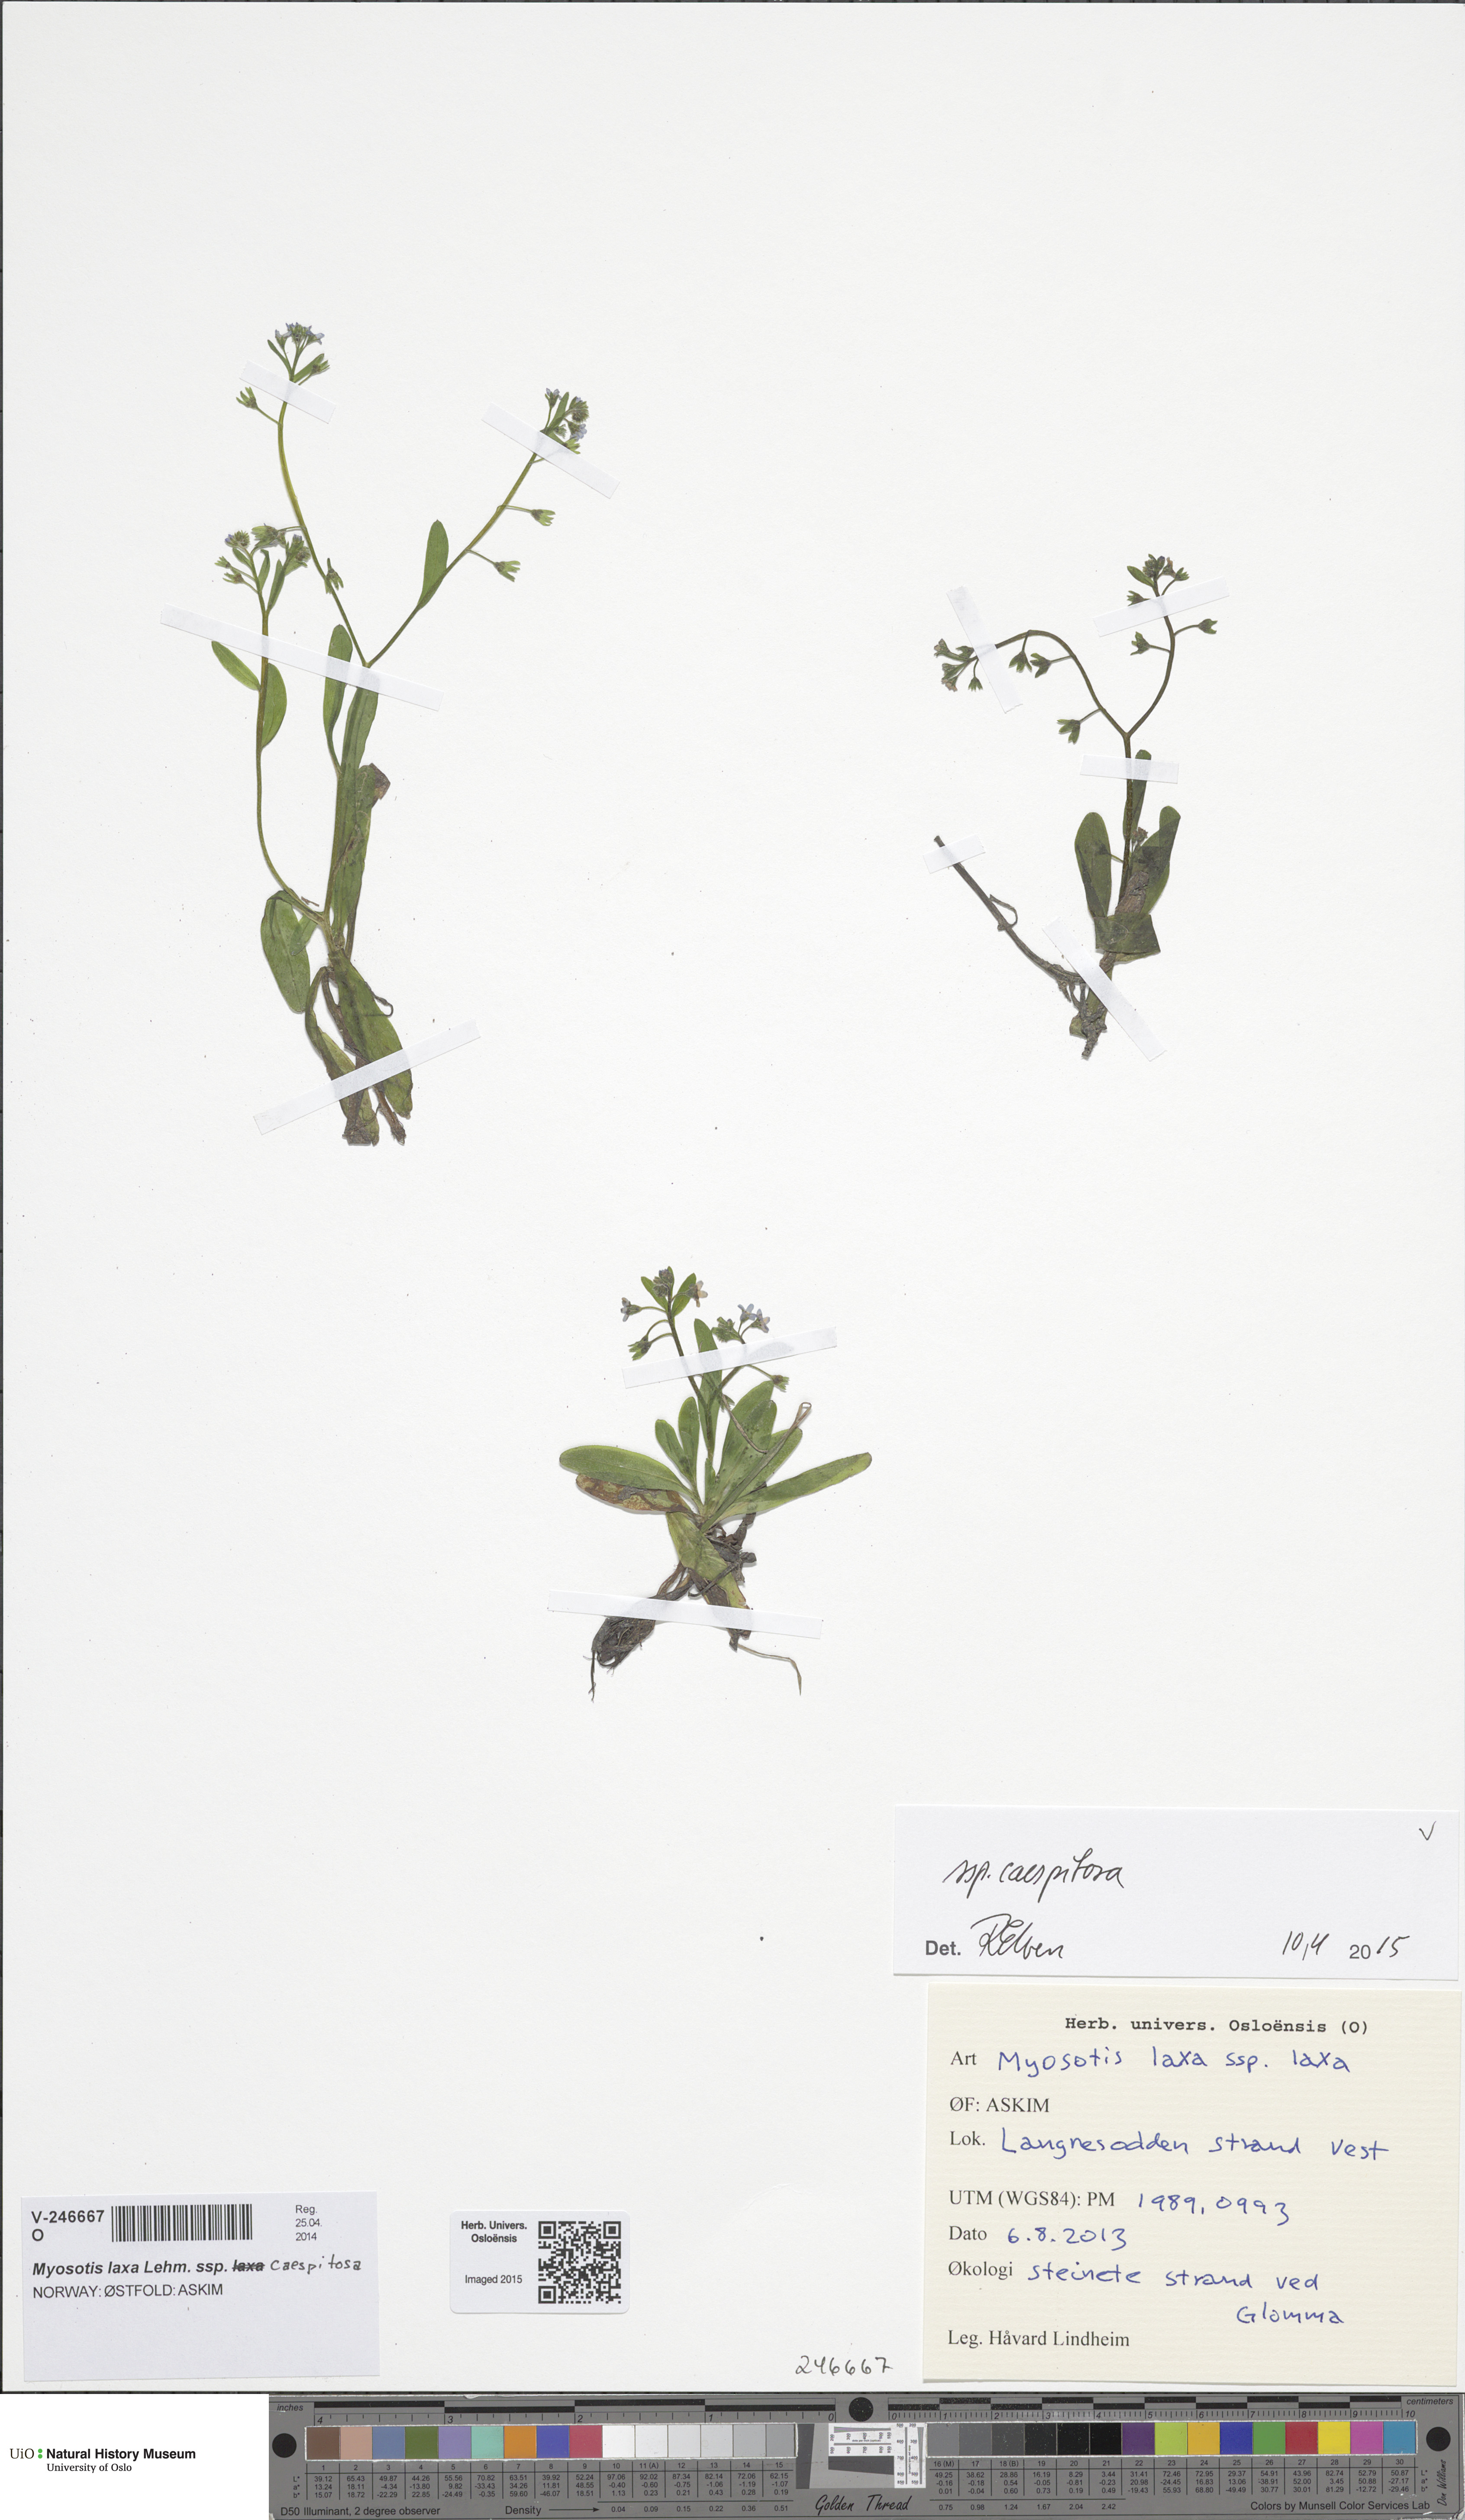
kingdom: Plantae
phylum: Tracheophyta
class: Magnoliopsida
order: Boraginales
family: Boraginaceae
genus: Myosotis
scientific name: Myosotis laxa
